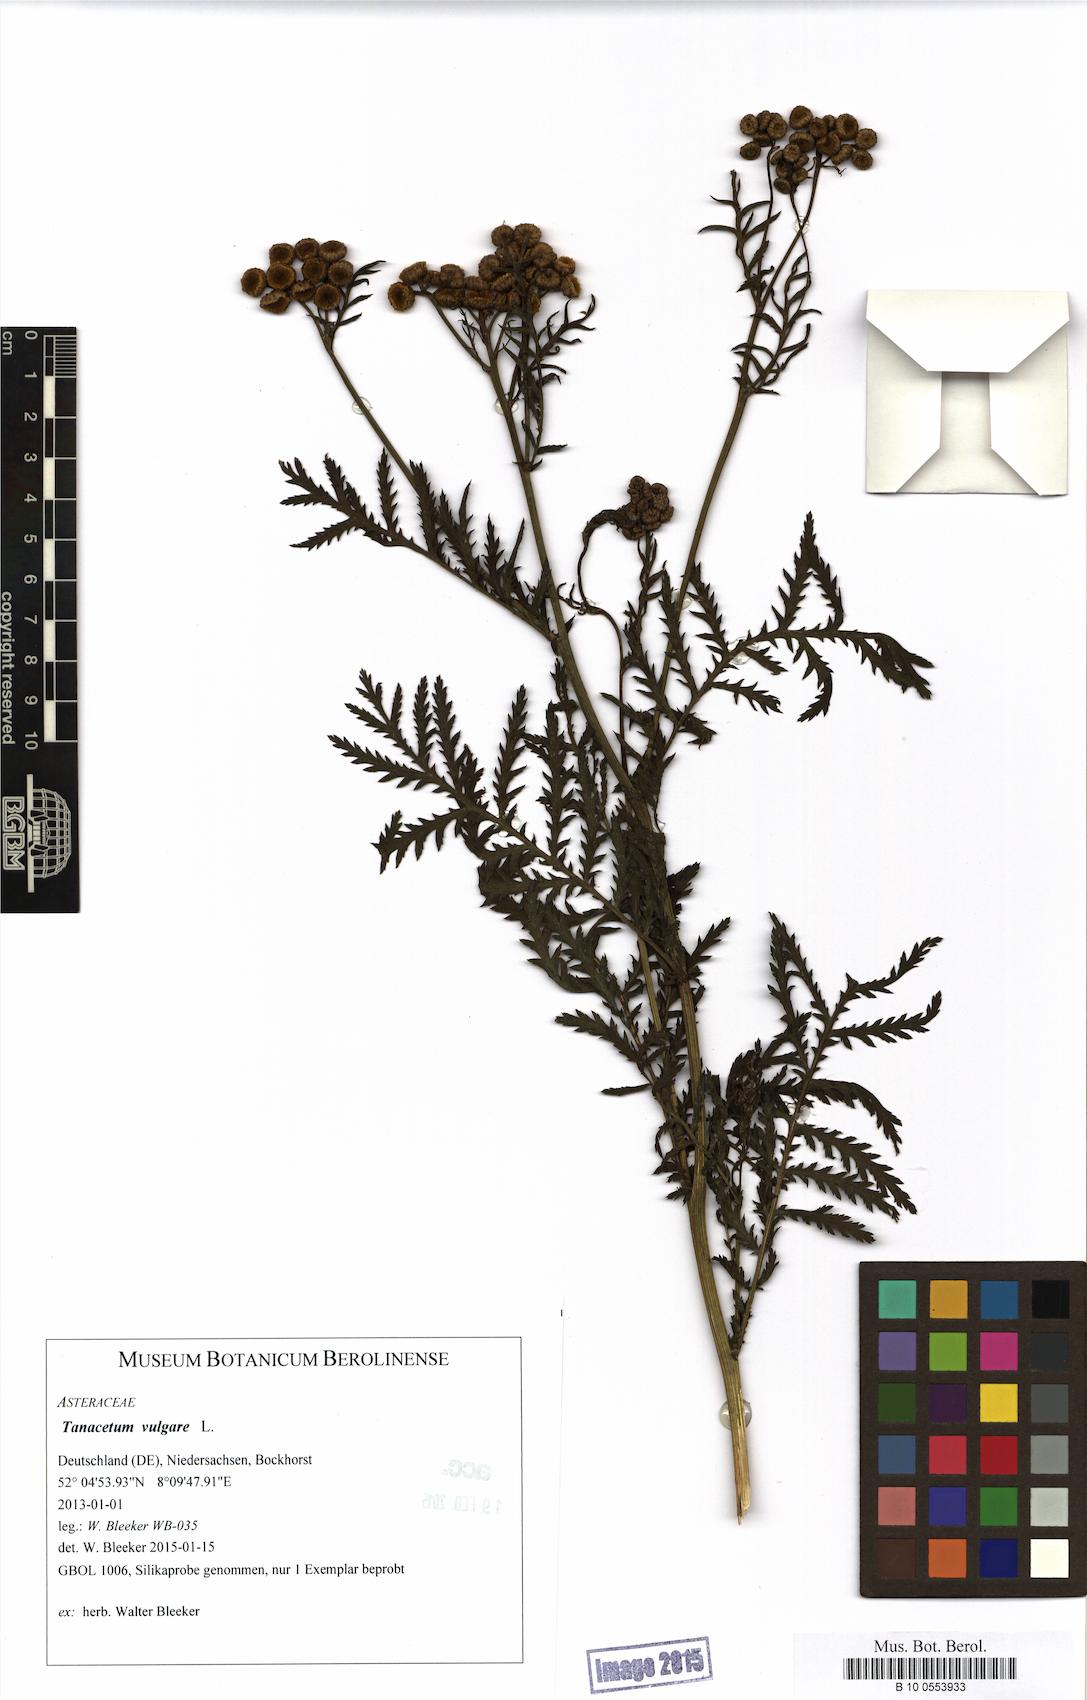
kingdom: Plantae
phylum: Tracheophyta
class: Magnoliopsida
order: Asterales
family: Asteraceae
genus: Tanacetum
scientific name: Tanacetum vulgare
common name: Common tansy
